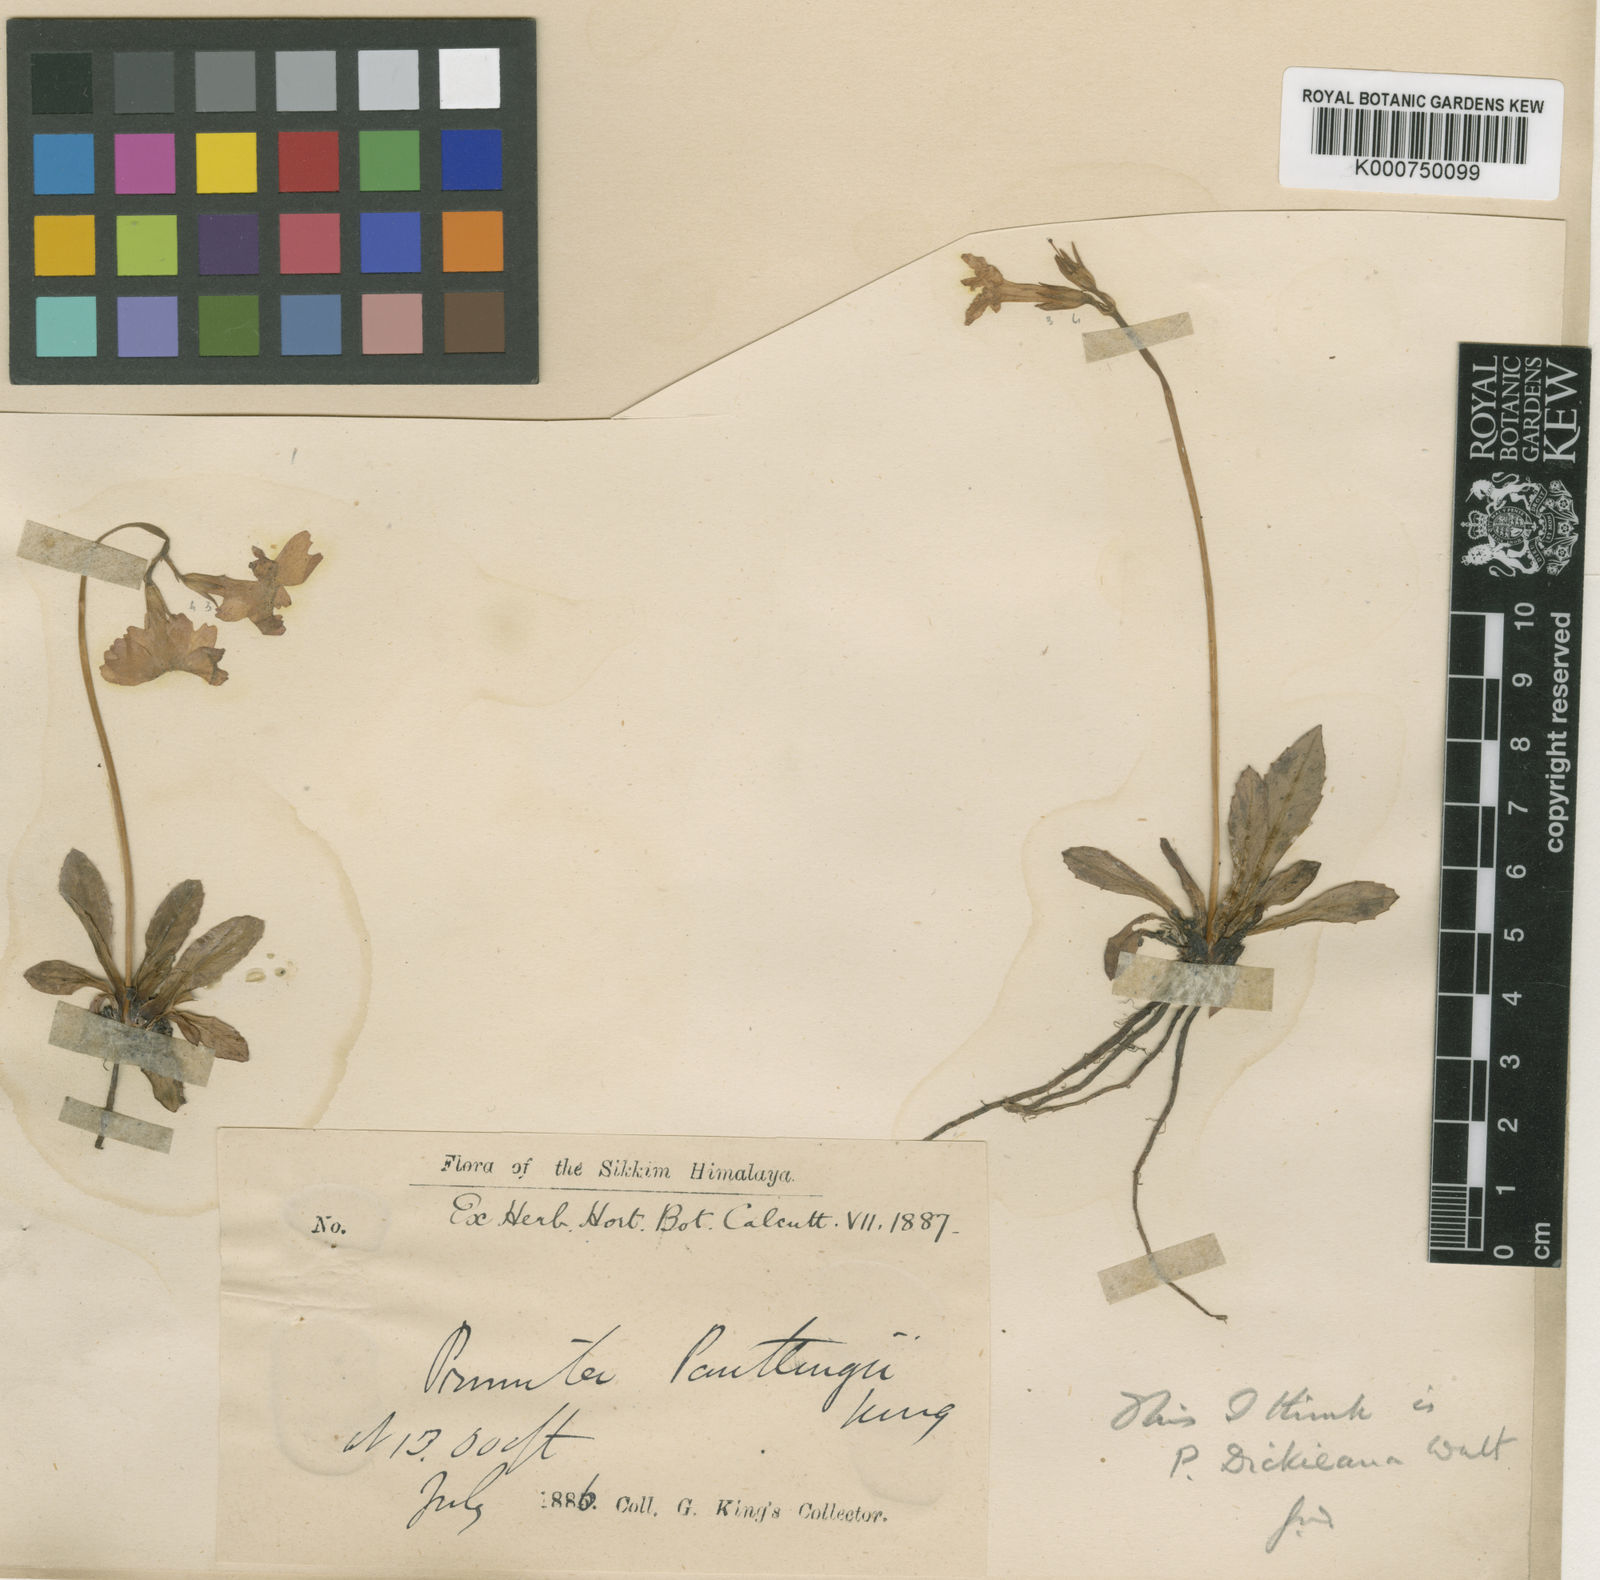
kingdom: Plantae
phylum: Tracheophyta
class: Magnoliopsida
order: Ericales
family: Primulaceae
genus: Primula
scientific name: Primula dickieana
